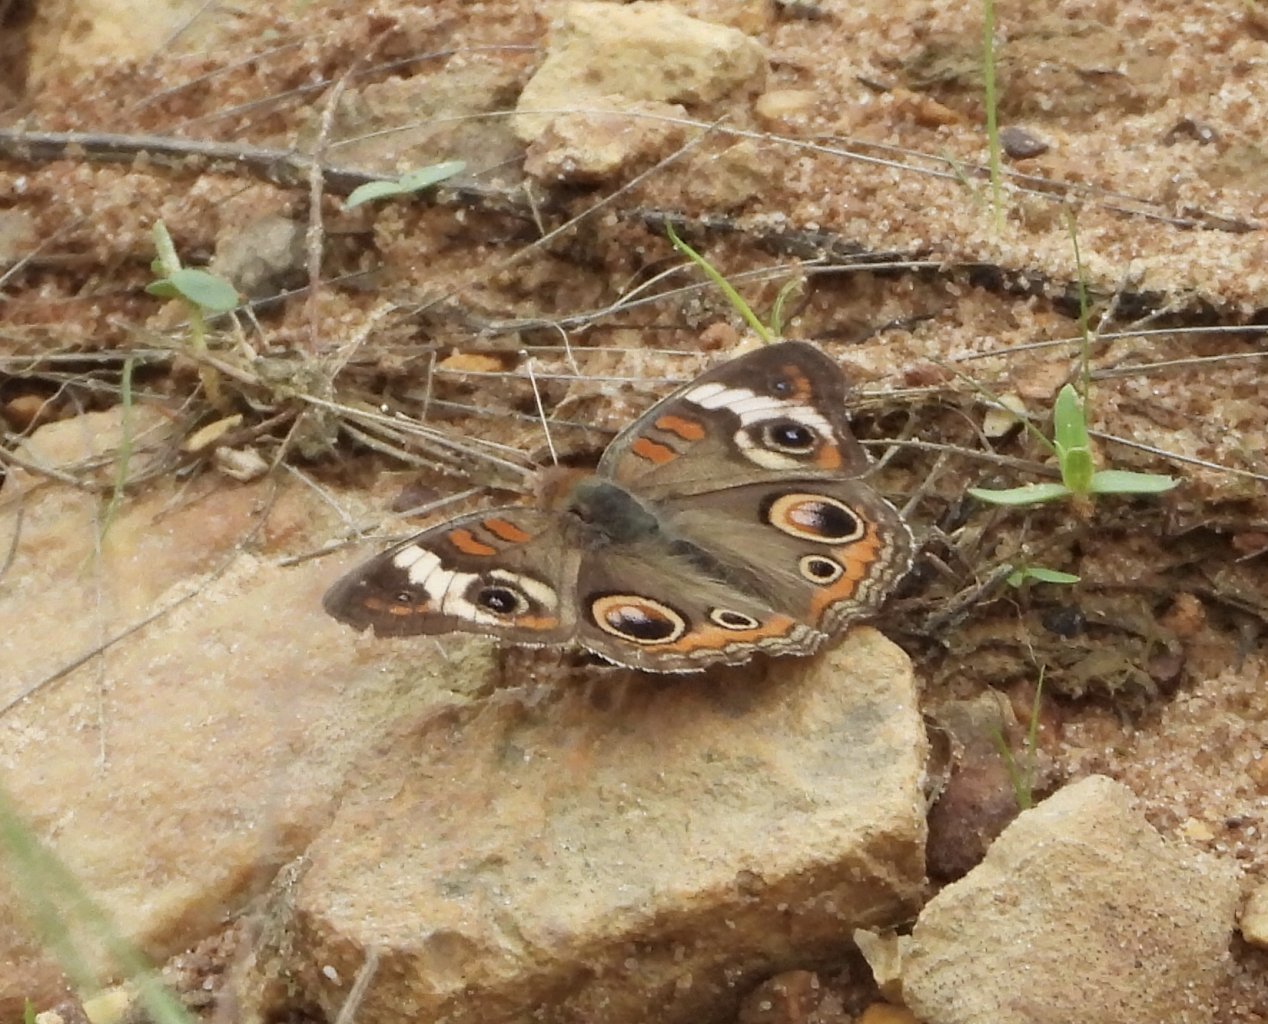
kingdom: Animalia
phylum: Arthropoda
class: Insecta
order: Lepidoptera
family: Nymphalidae
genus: Junonia
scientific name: Junonia coenia
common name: Common Buckeye
